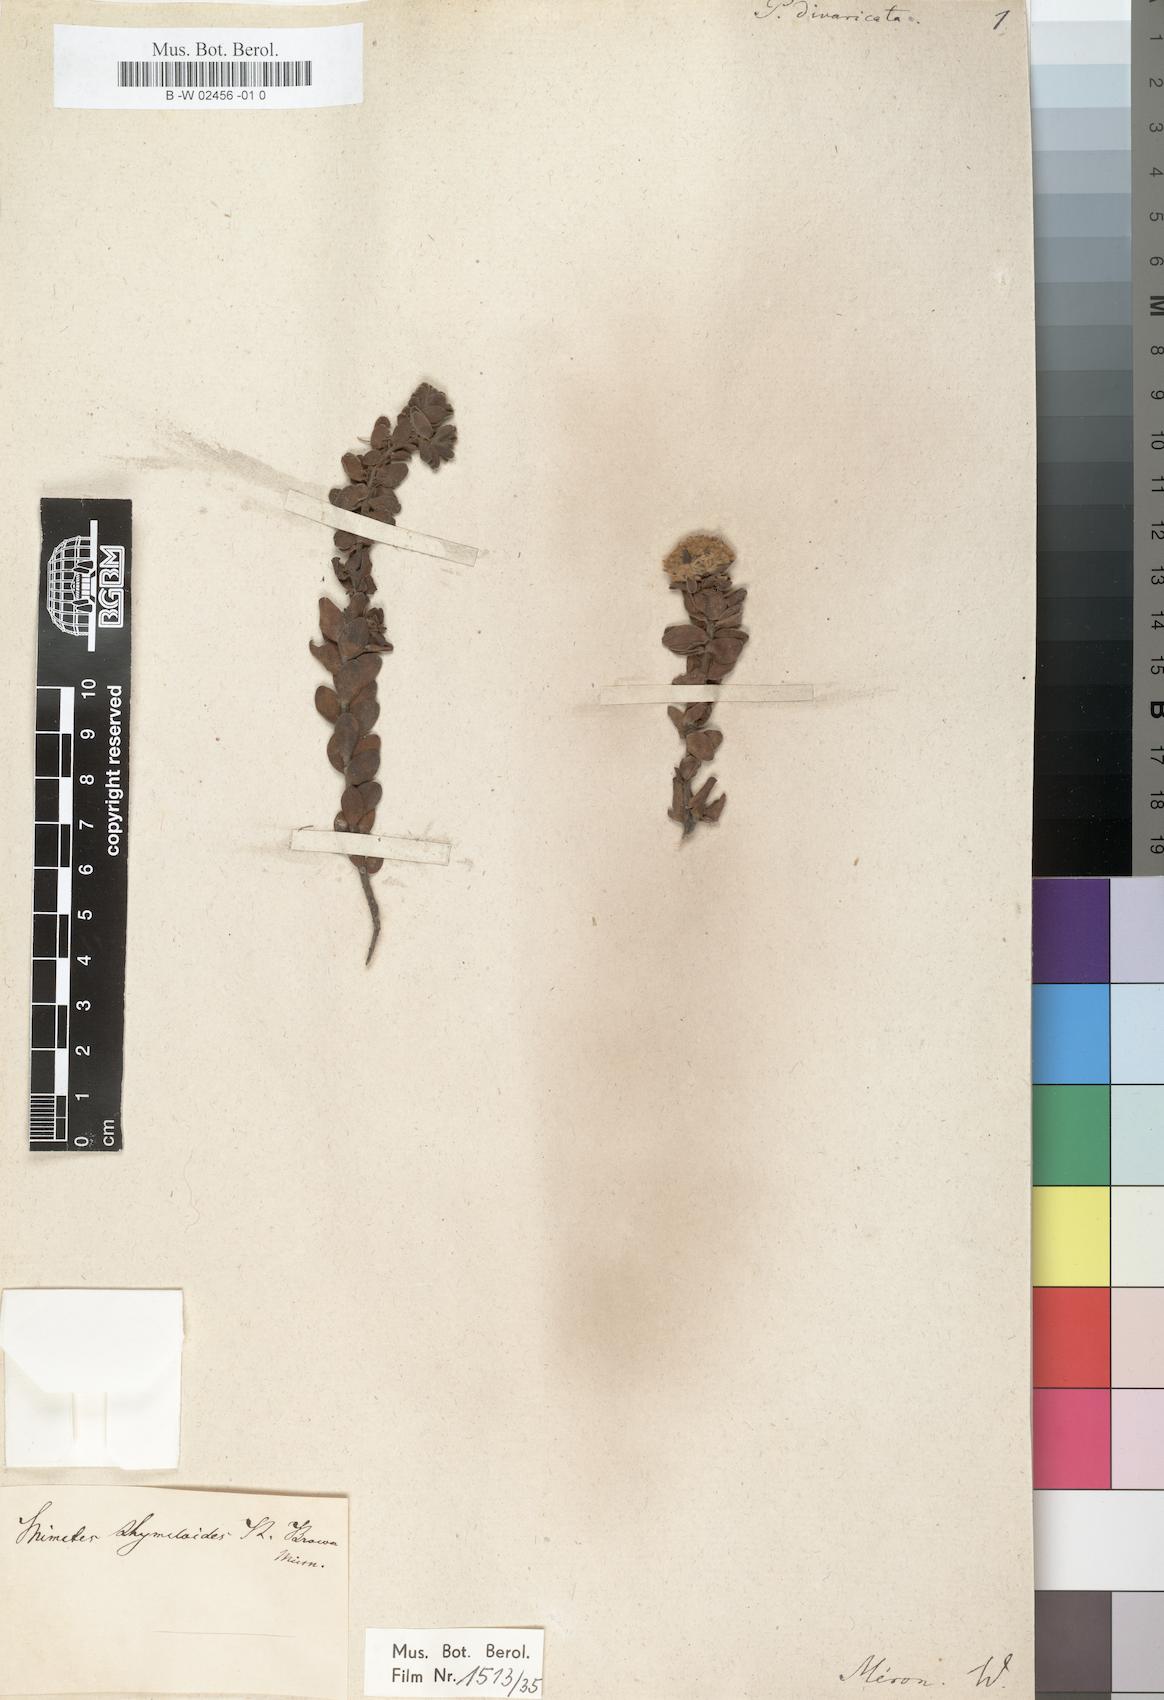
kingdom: Plantae
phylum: Tracheophyta
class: Magnoliopsida
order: Proteales
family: Proteaceae
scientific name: Proteaceae
